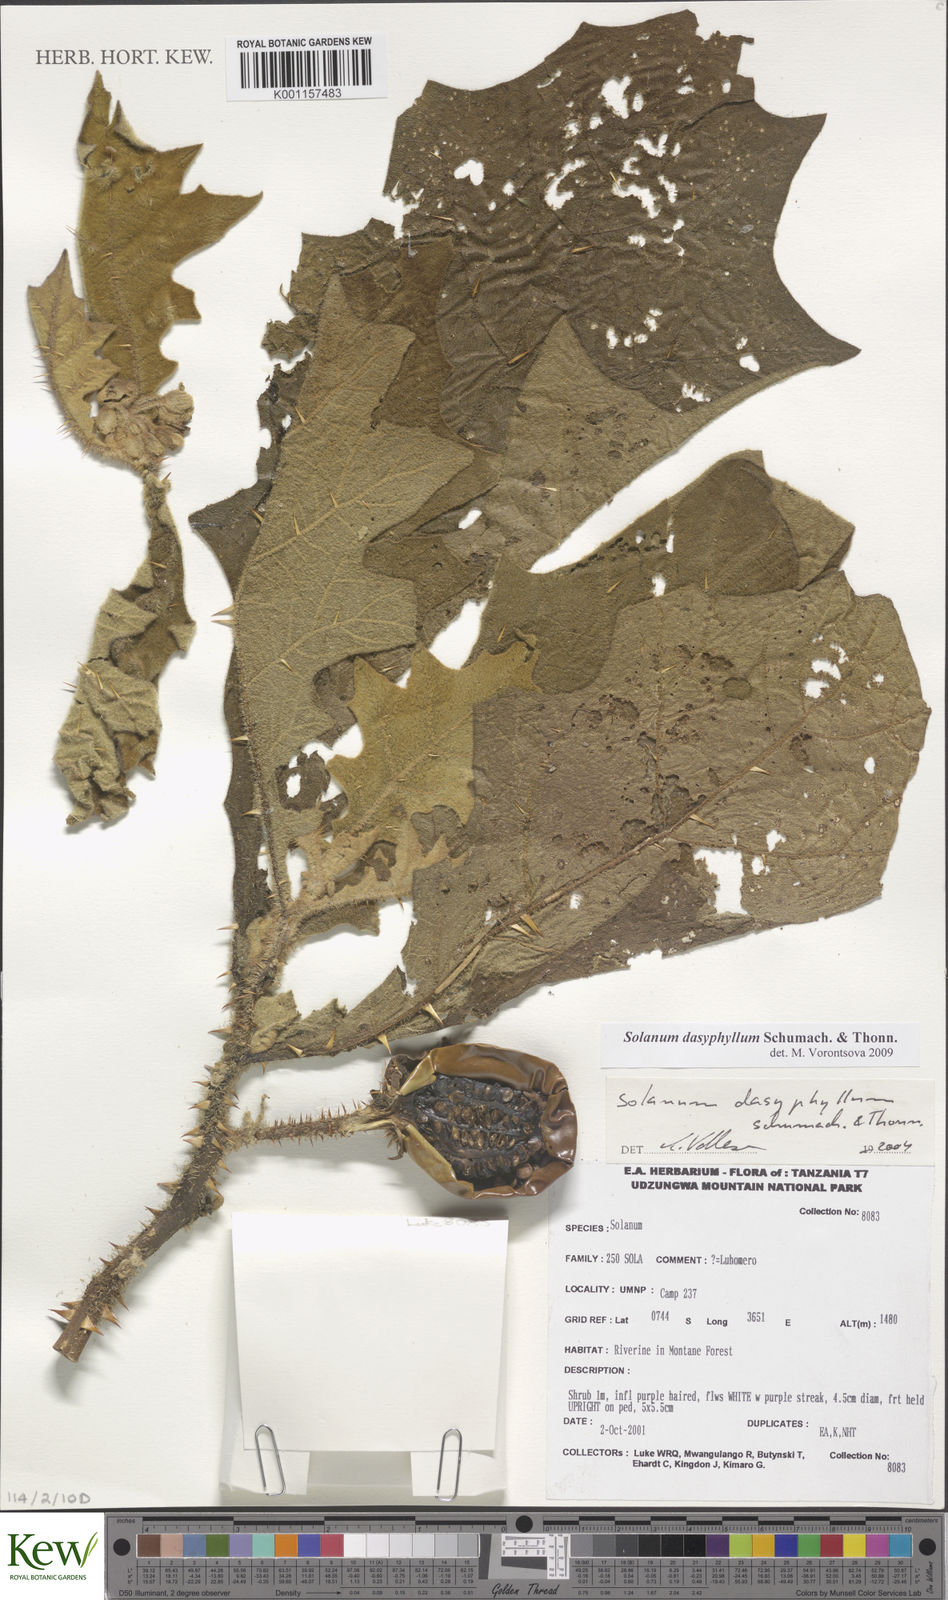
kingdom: Plantae
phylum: Tracheophyta
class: Magnoliopsida
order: Solanales
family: Solanaceae
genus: Solanum
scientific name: Solanum dasyphyllum
